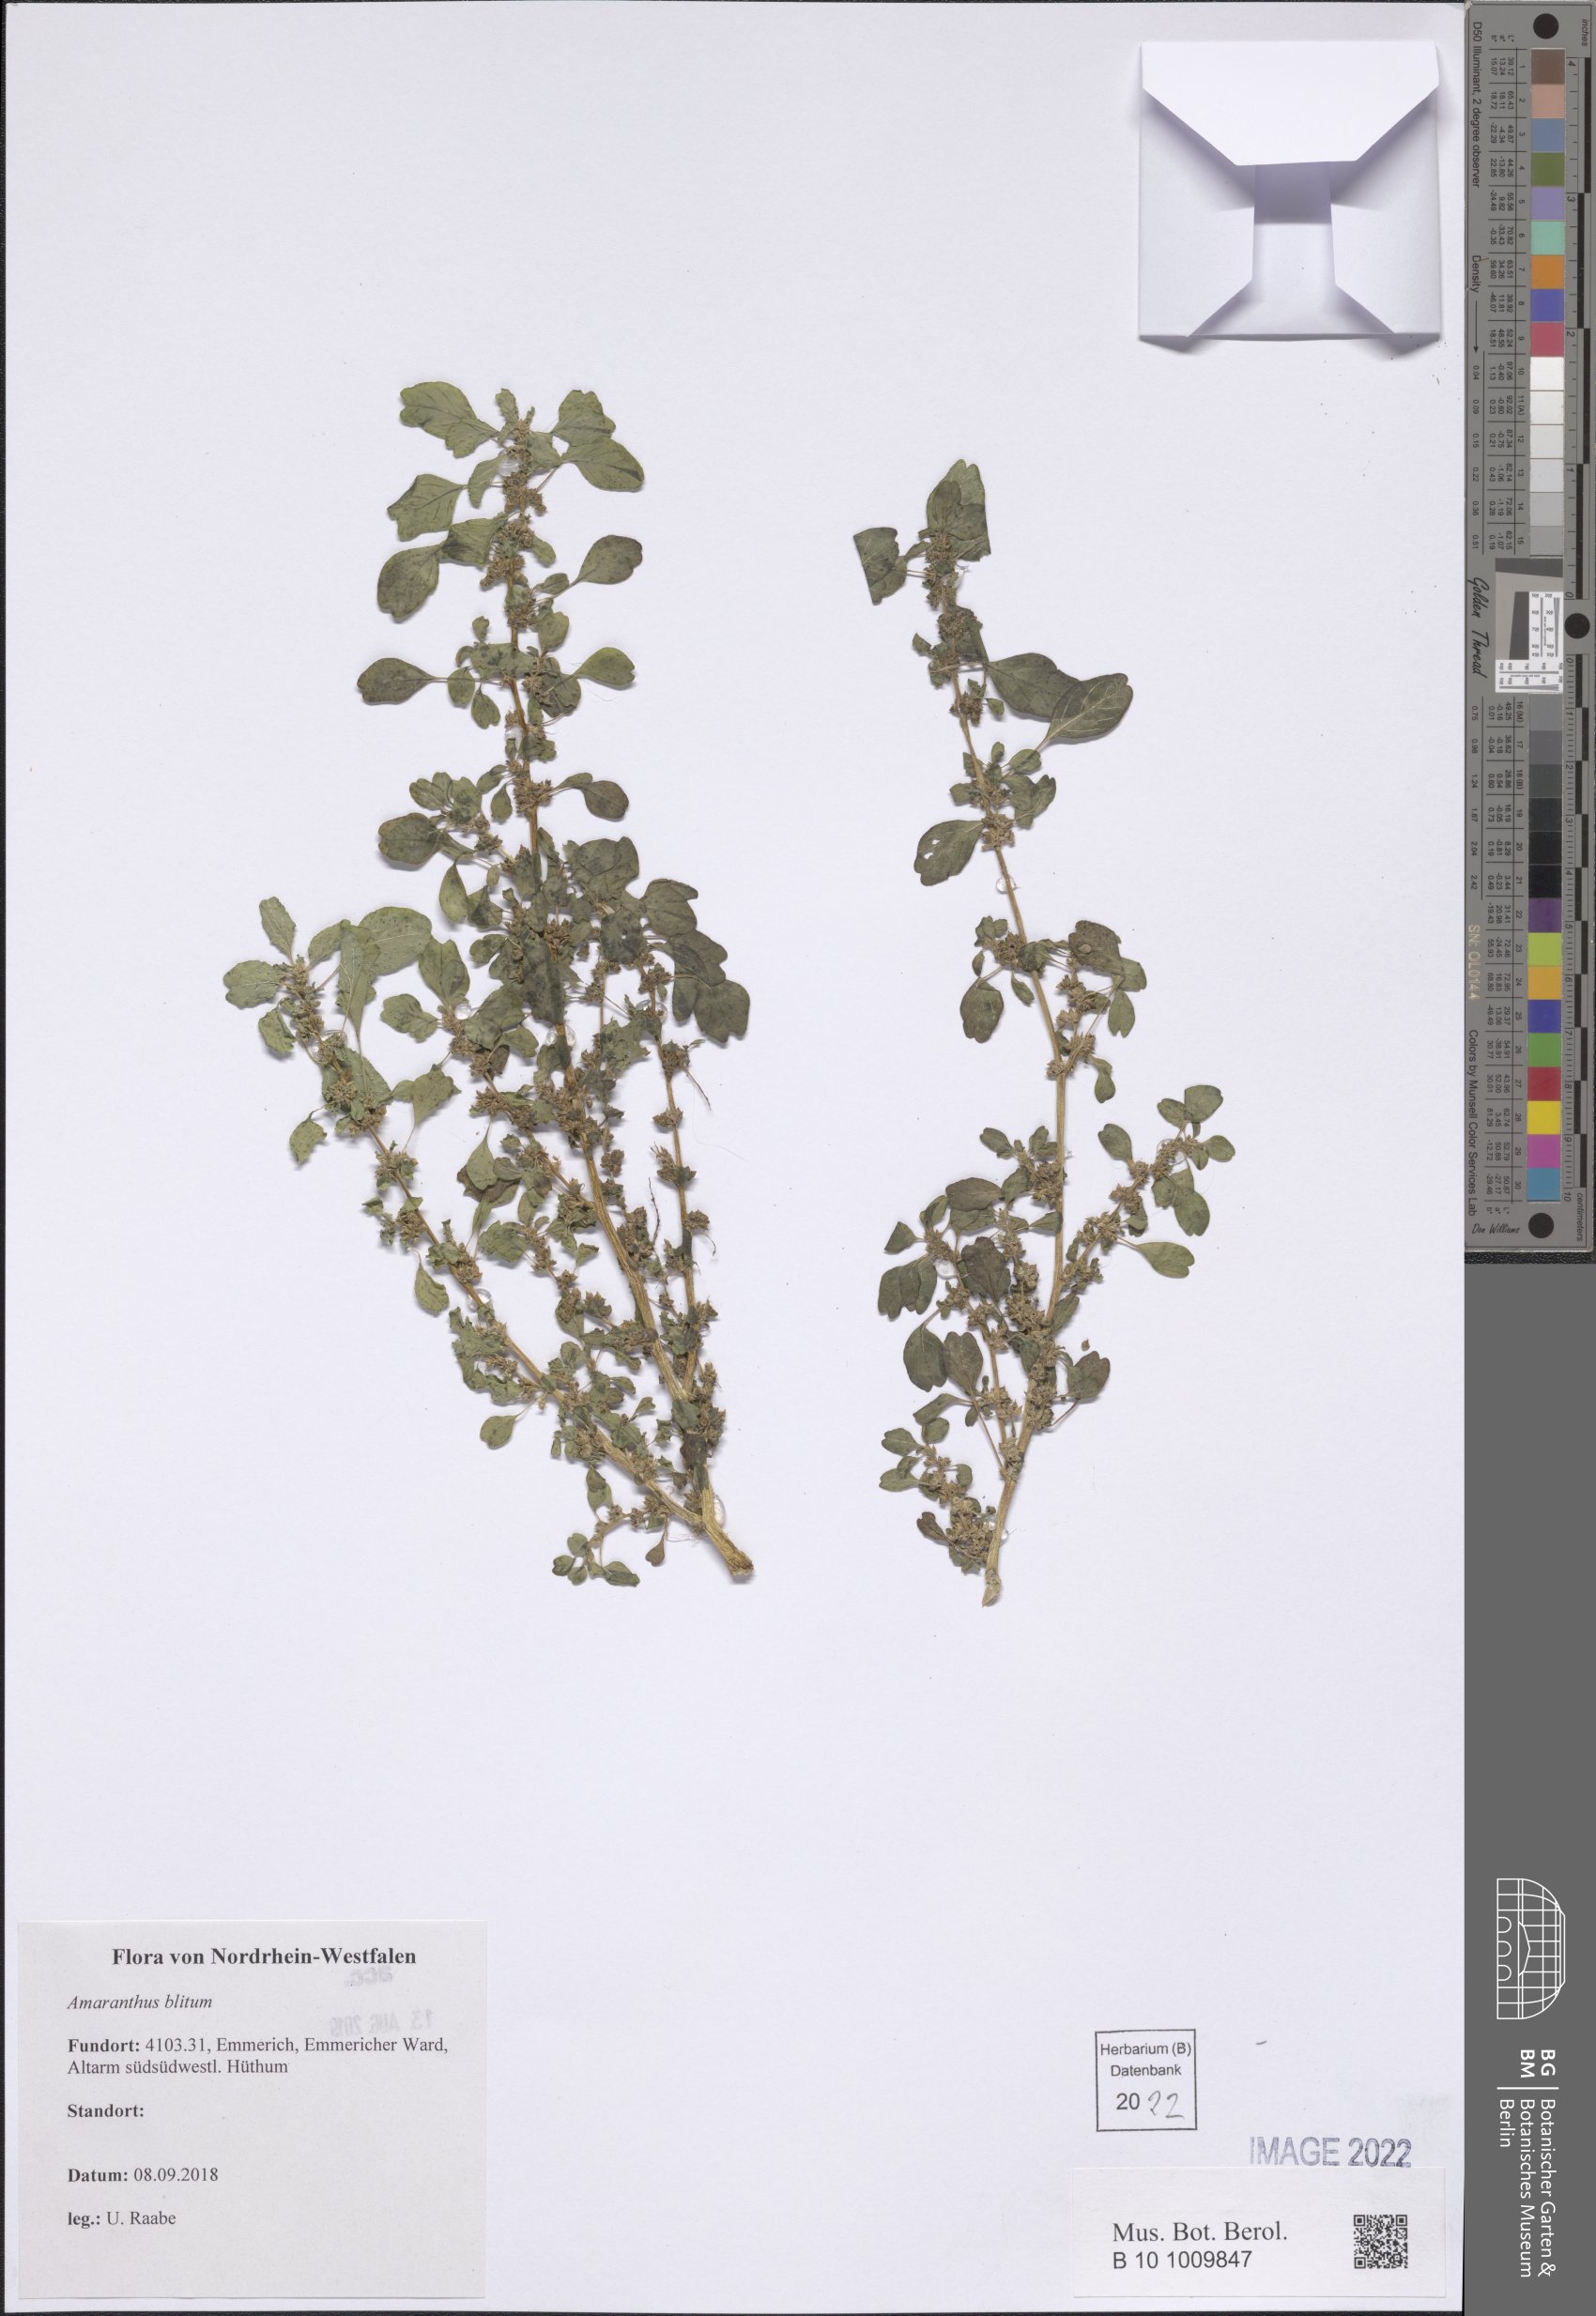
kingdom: Plantae
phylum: Tracheophyta
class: Magnoliopsida
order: Caryophyllales
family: Amaranthaceae
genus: Amaranthus
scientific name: Amaranthus blitum
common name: Purple amaranth
